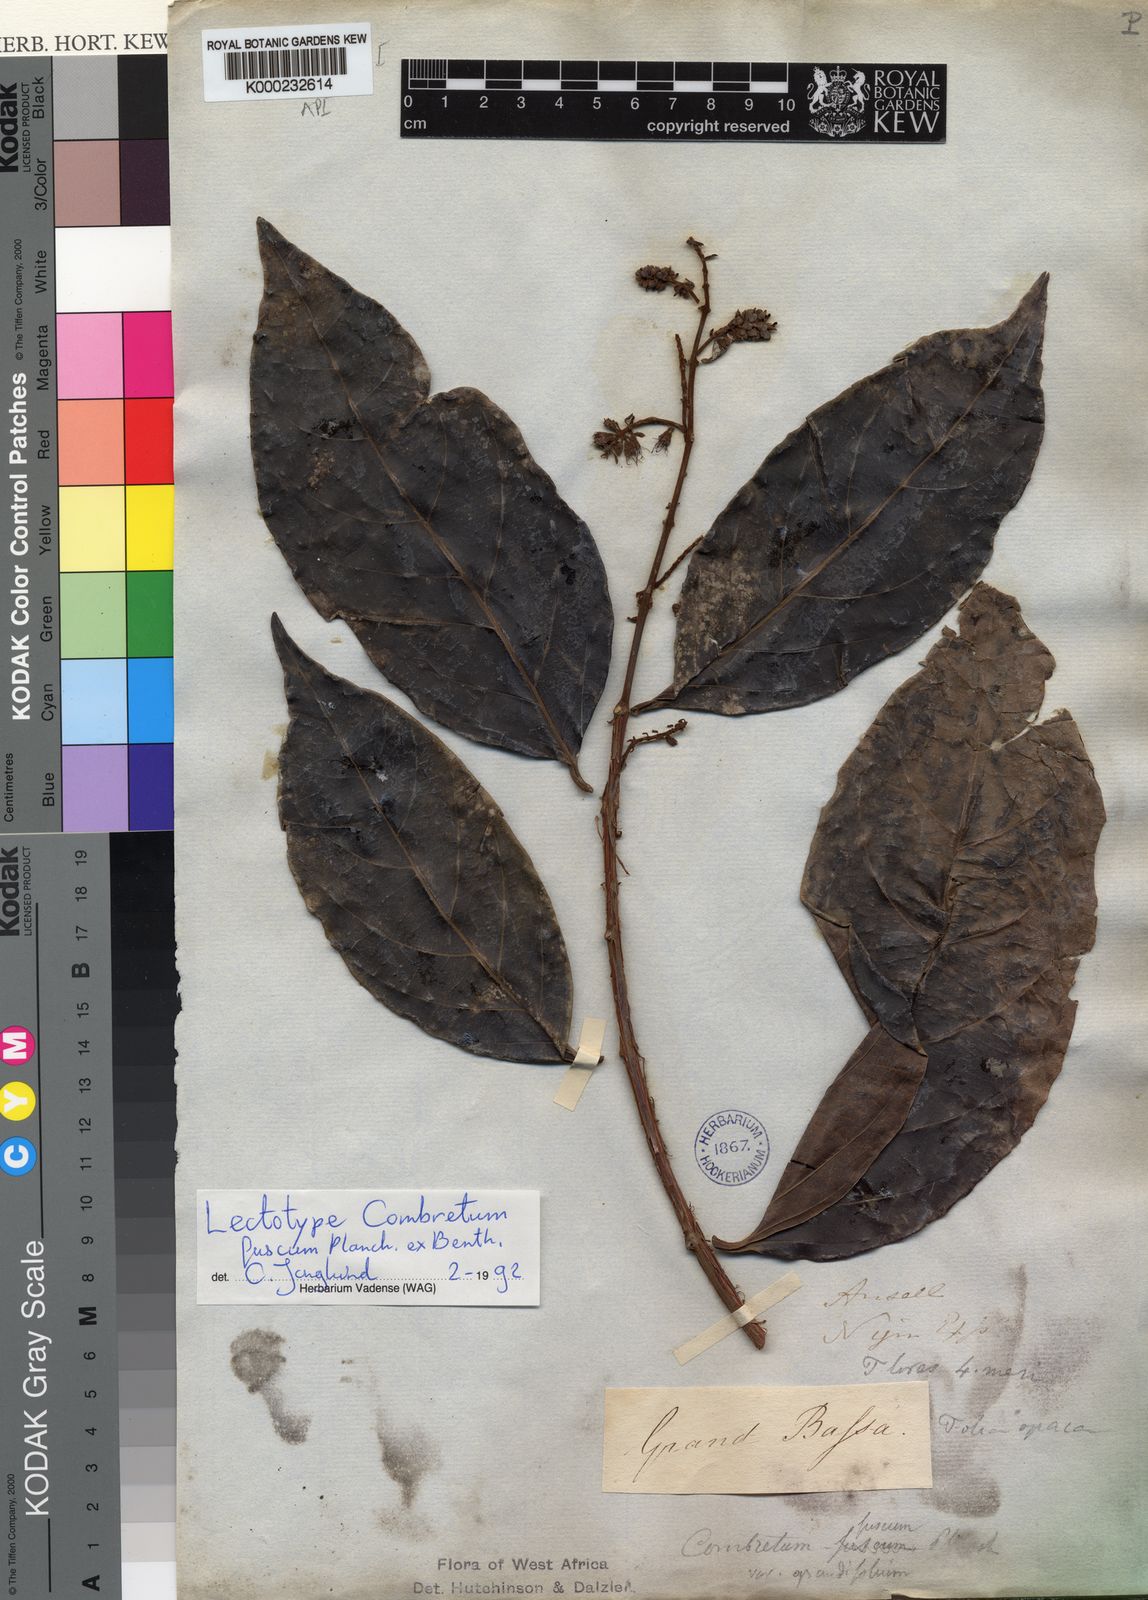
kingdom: Plantae
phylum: Tracheophyta
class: Magnoliopsida
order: Myrtales
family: Combretaceae
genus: Combretum
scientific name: Combretum fuscum
